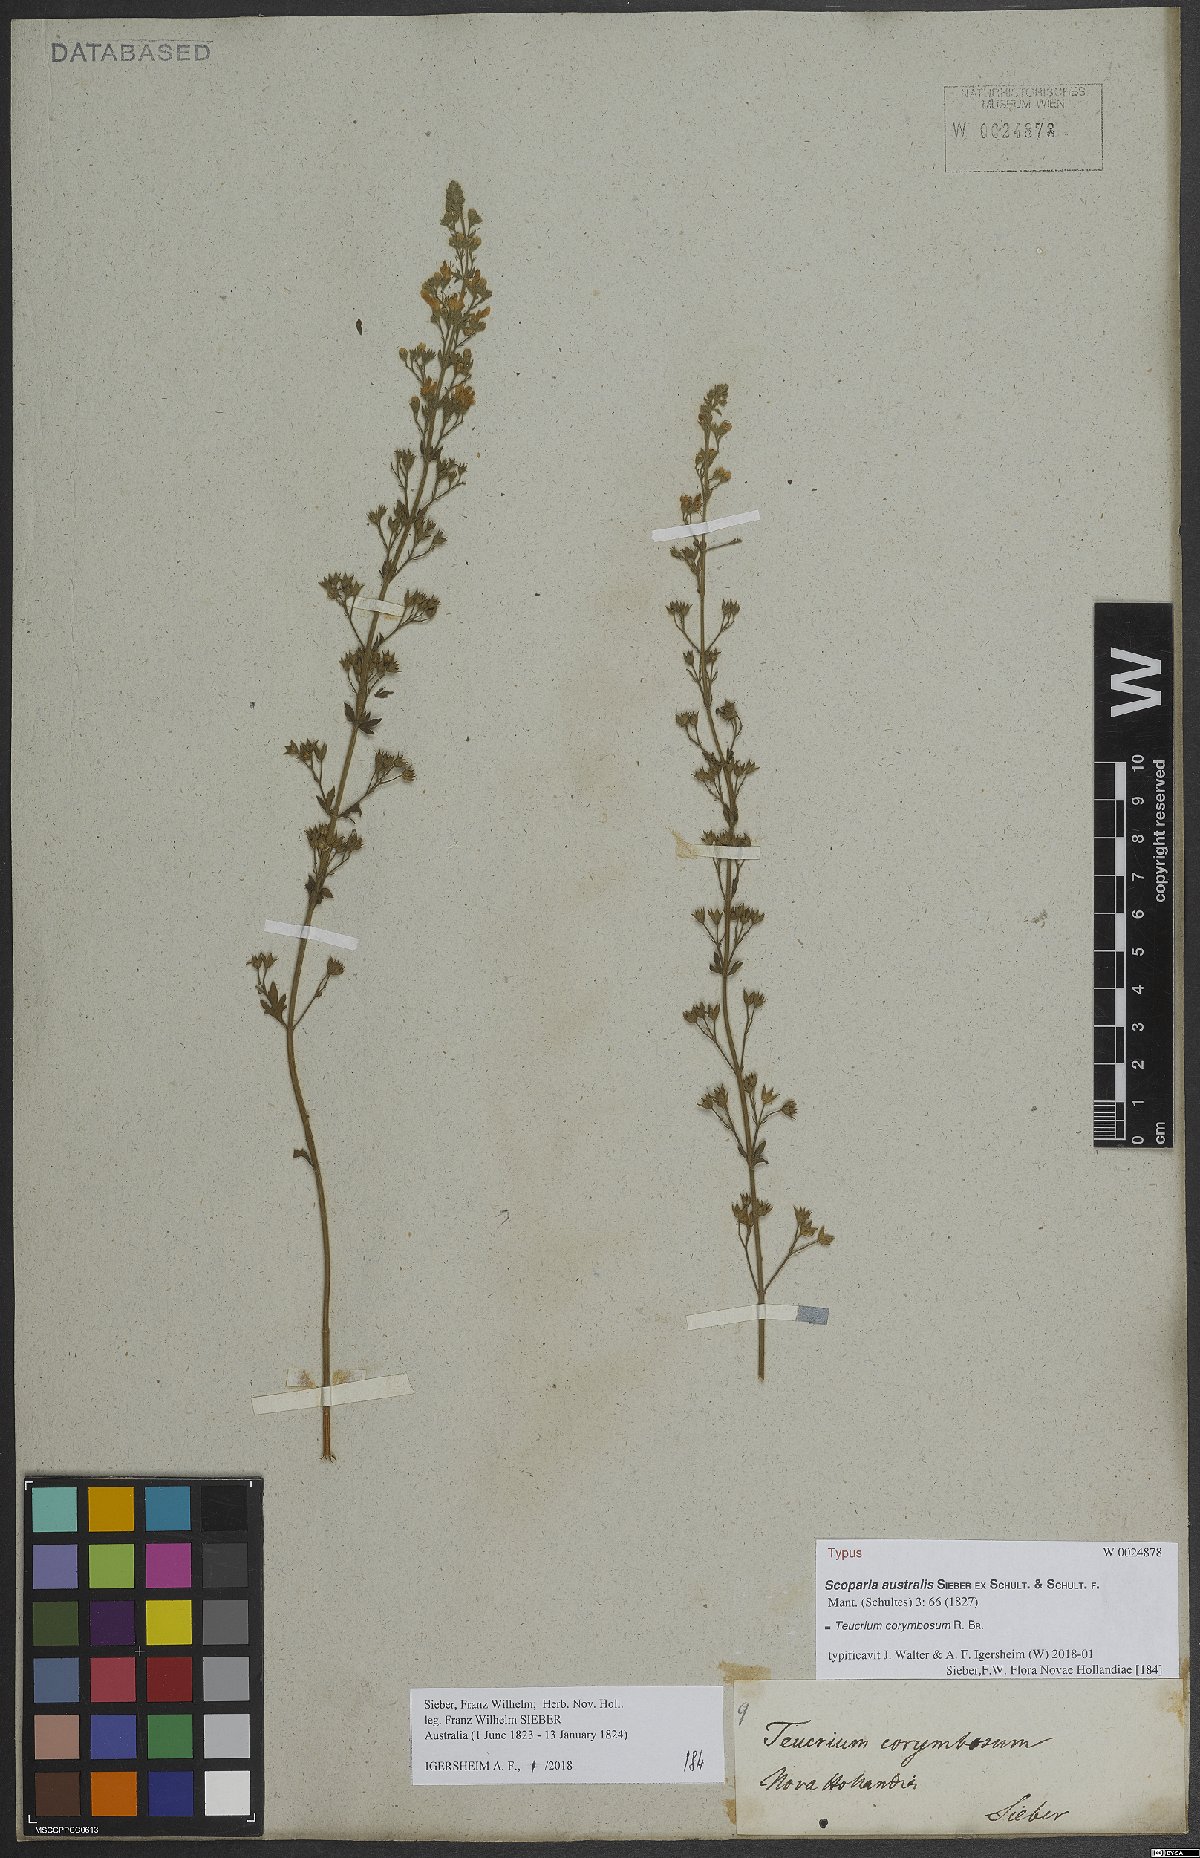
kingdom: Plantae
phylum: Tracheophyta
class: Magnoliopsida
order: Lamiales
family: Lamiaceae
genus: Teucrium
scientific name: Teucrium corymbosum
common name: Forest germander
